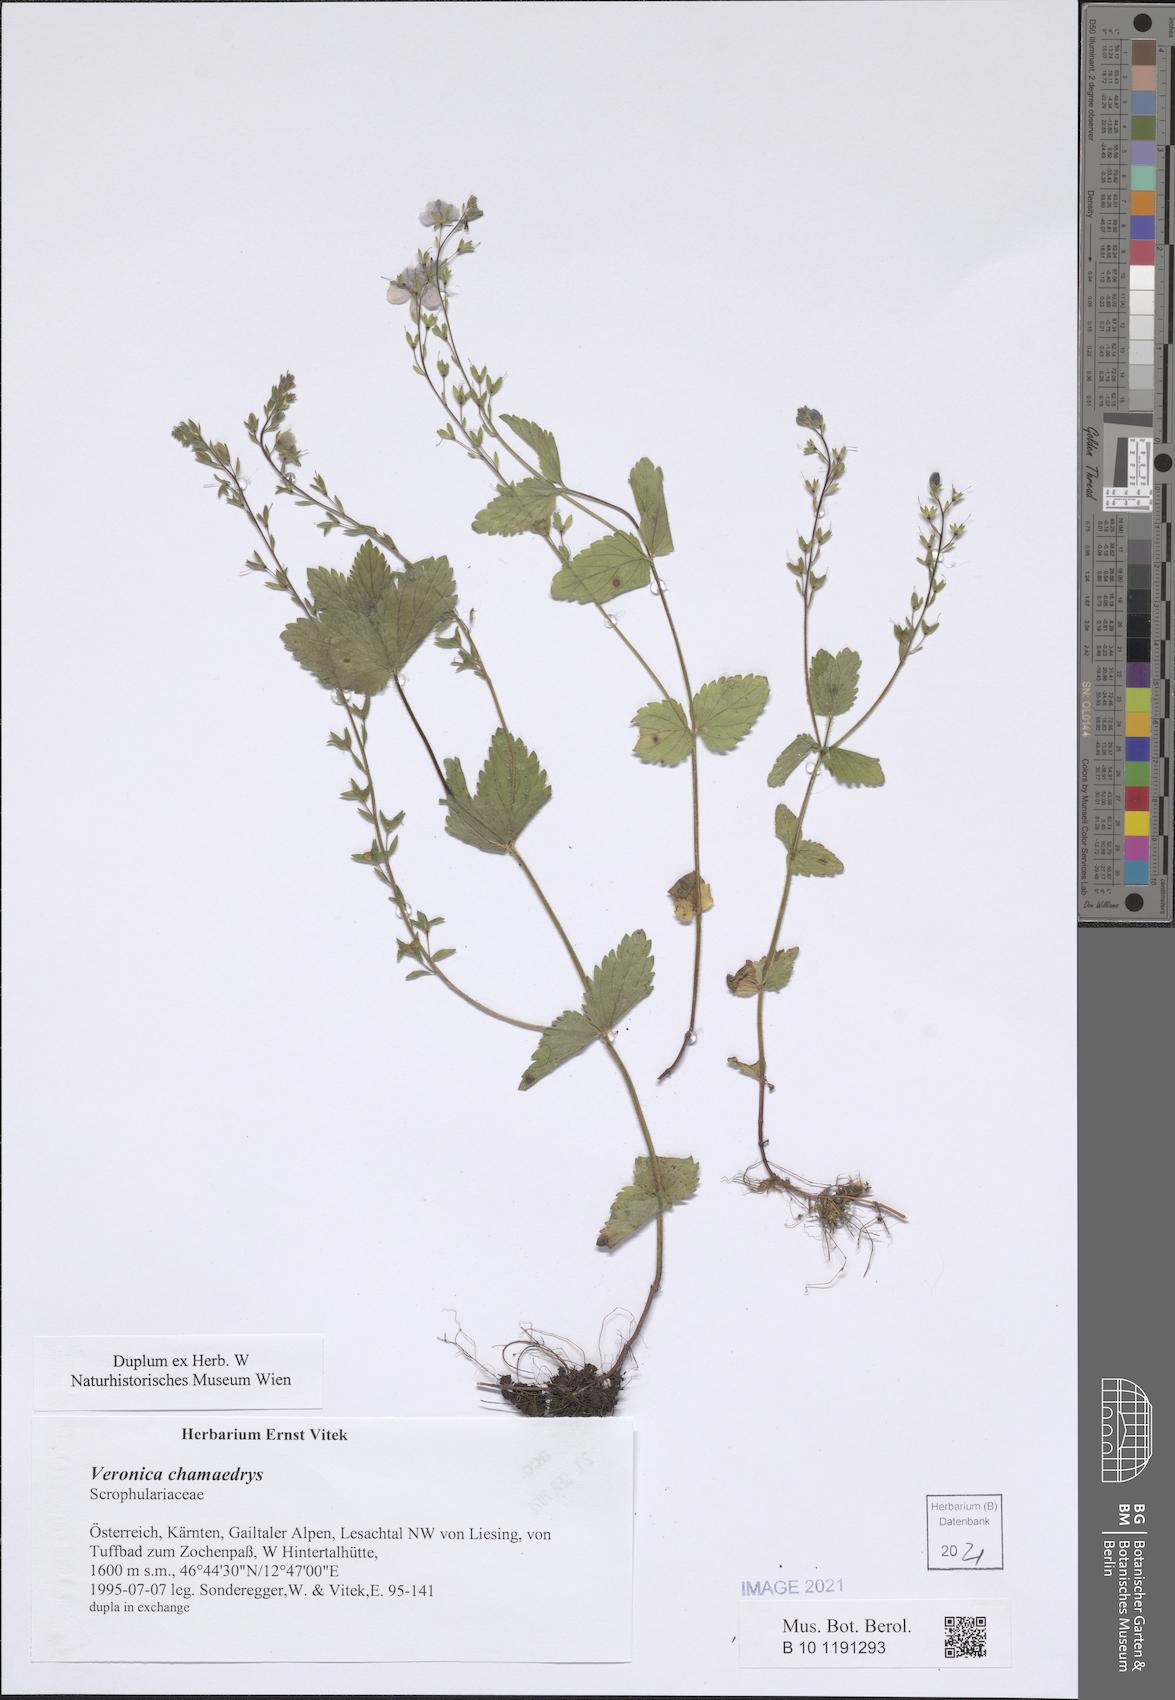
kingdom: Plantae
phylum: Tracheophyta
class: Magnoliopsida
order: Lamiales
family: Plantaginaceae
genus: Veronica
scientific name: Veronica chamaedrys
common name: Germander speedwell
